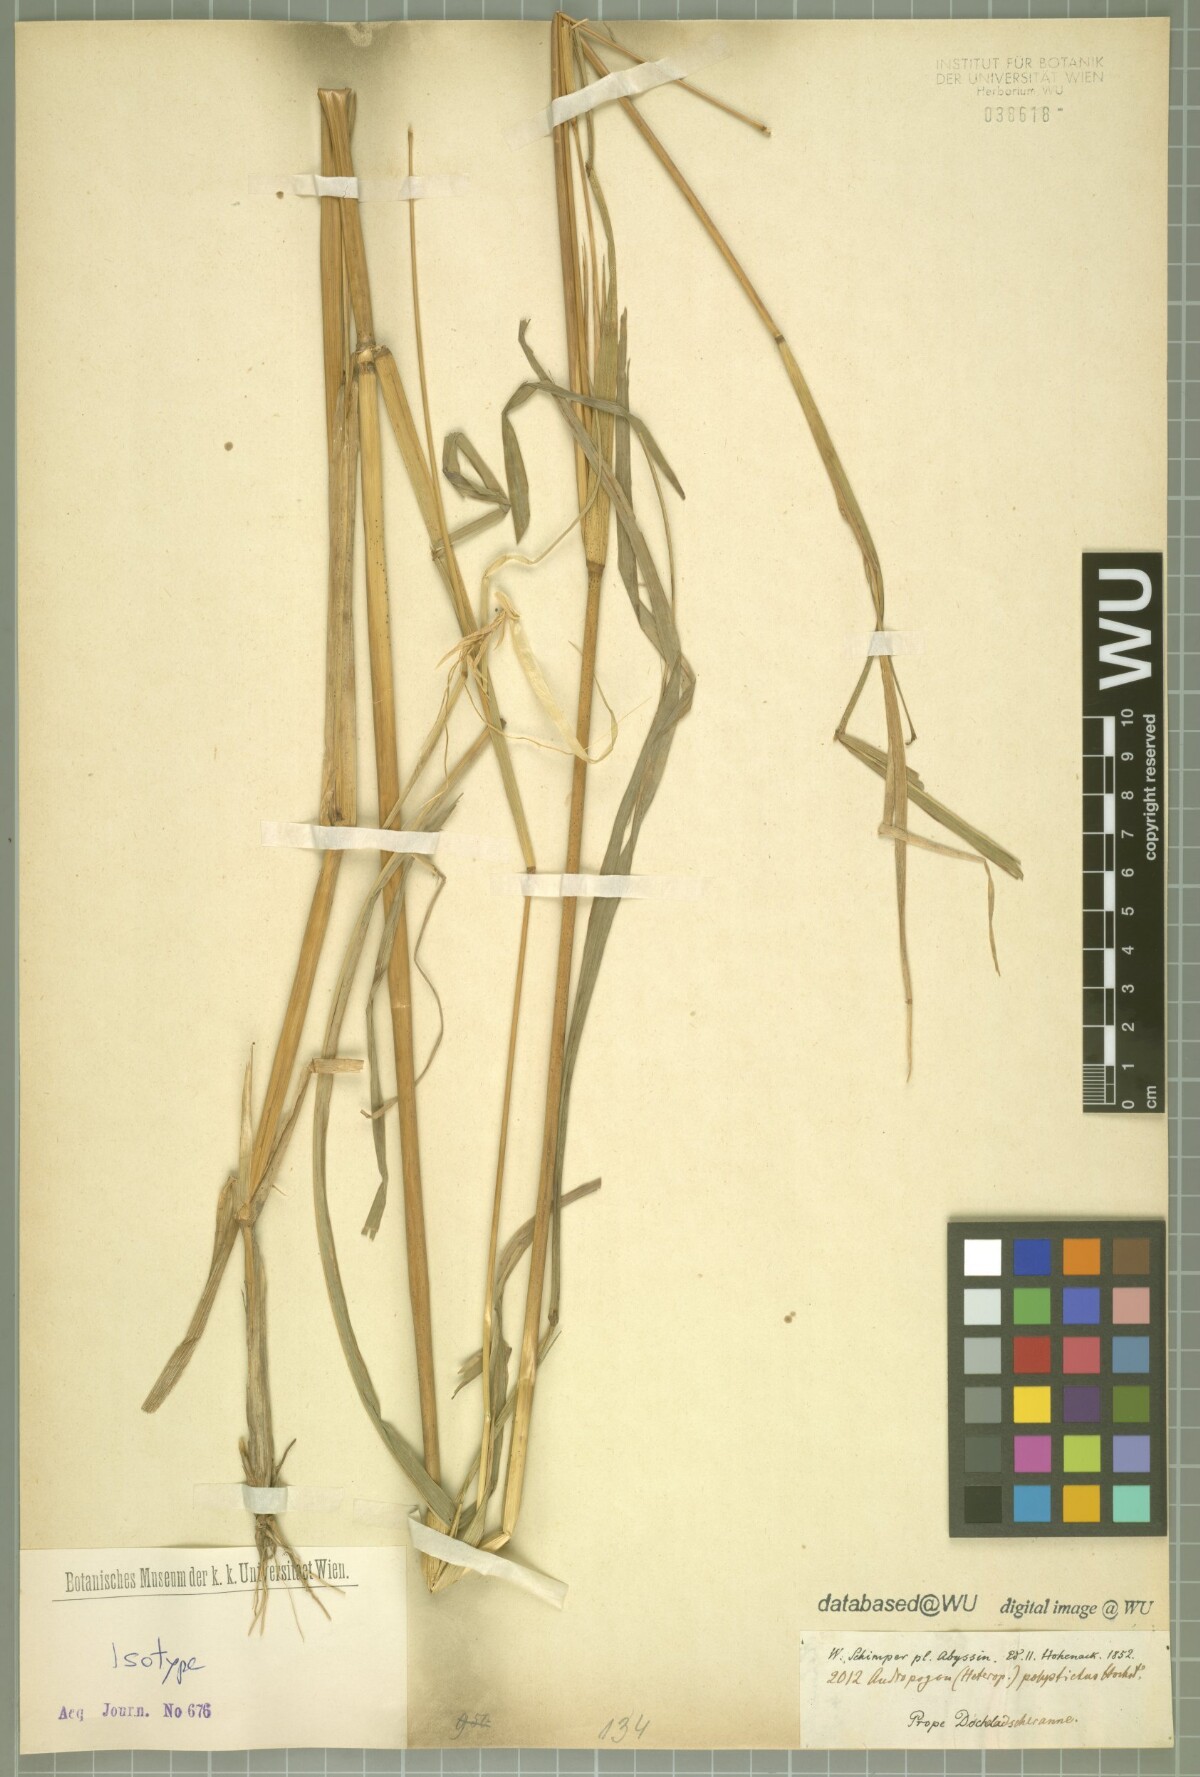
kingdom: Plantae
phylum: Tracheophyta
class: Liliopsida
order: Poales
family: Poaceae
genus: Andropogon
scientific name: Andropogon polystichus
